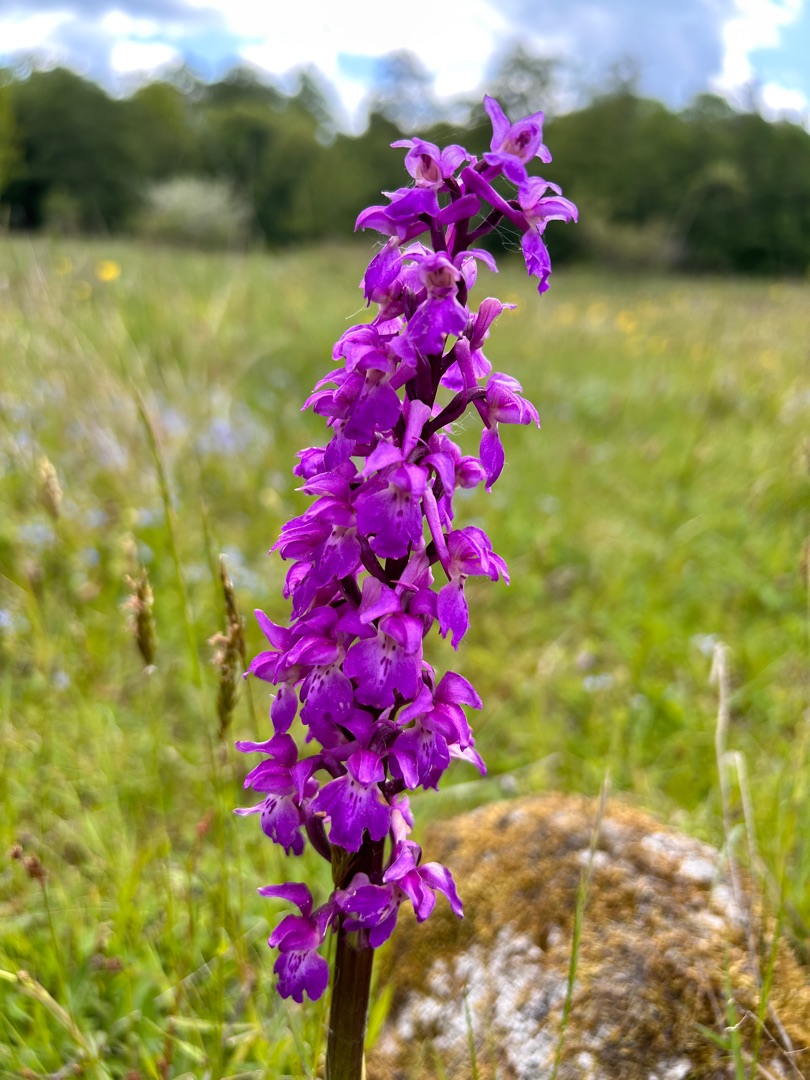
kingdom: Plantae
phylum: Tracheophyta
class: Liliopsida
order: Asparagales
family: Orchidaceae
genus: Orchis
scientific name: Orchis mascula
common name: Tyndakset gøgeurt
